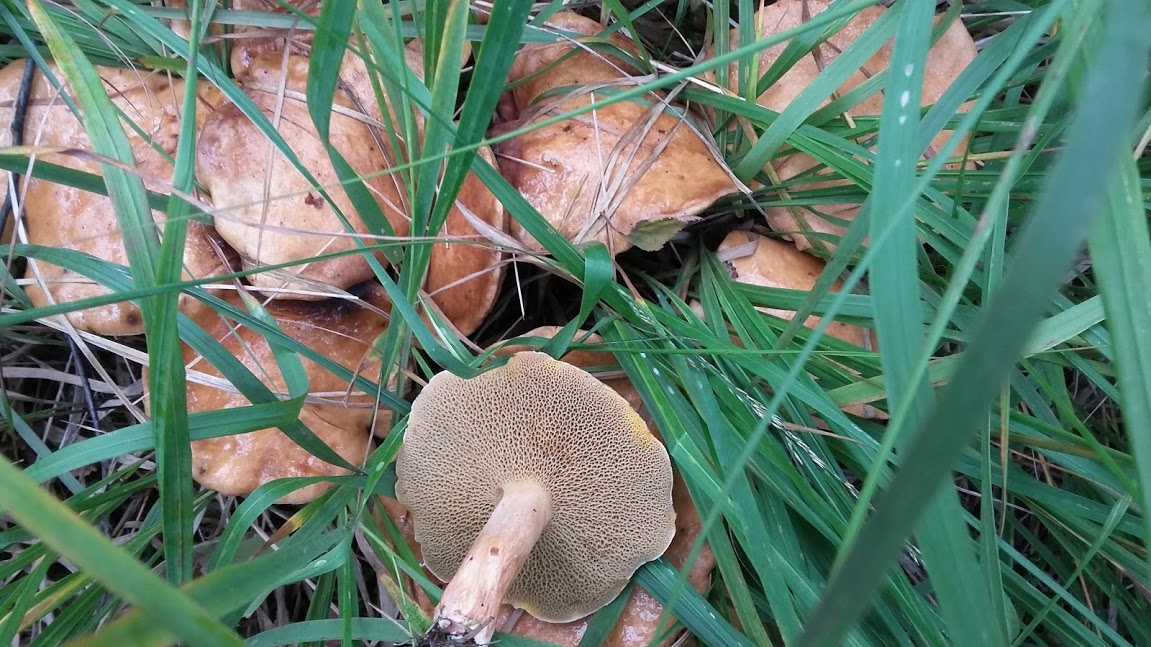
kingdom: Fungi
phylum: Basidiomycota
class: Agaricomycetes
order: Boletales
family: Suillaceae
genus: Suillus
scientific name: Suillus bovinus
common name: grovporet slimrørhat
